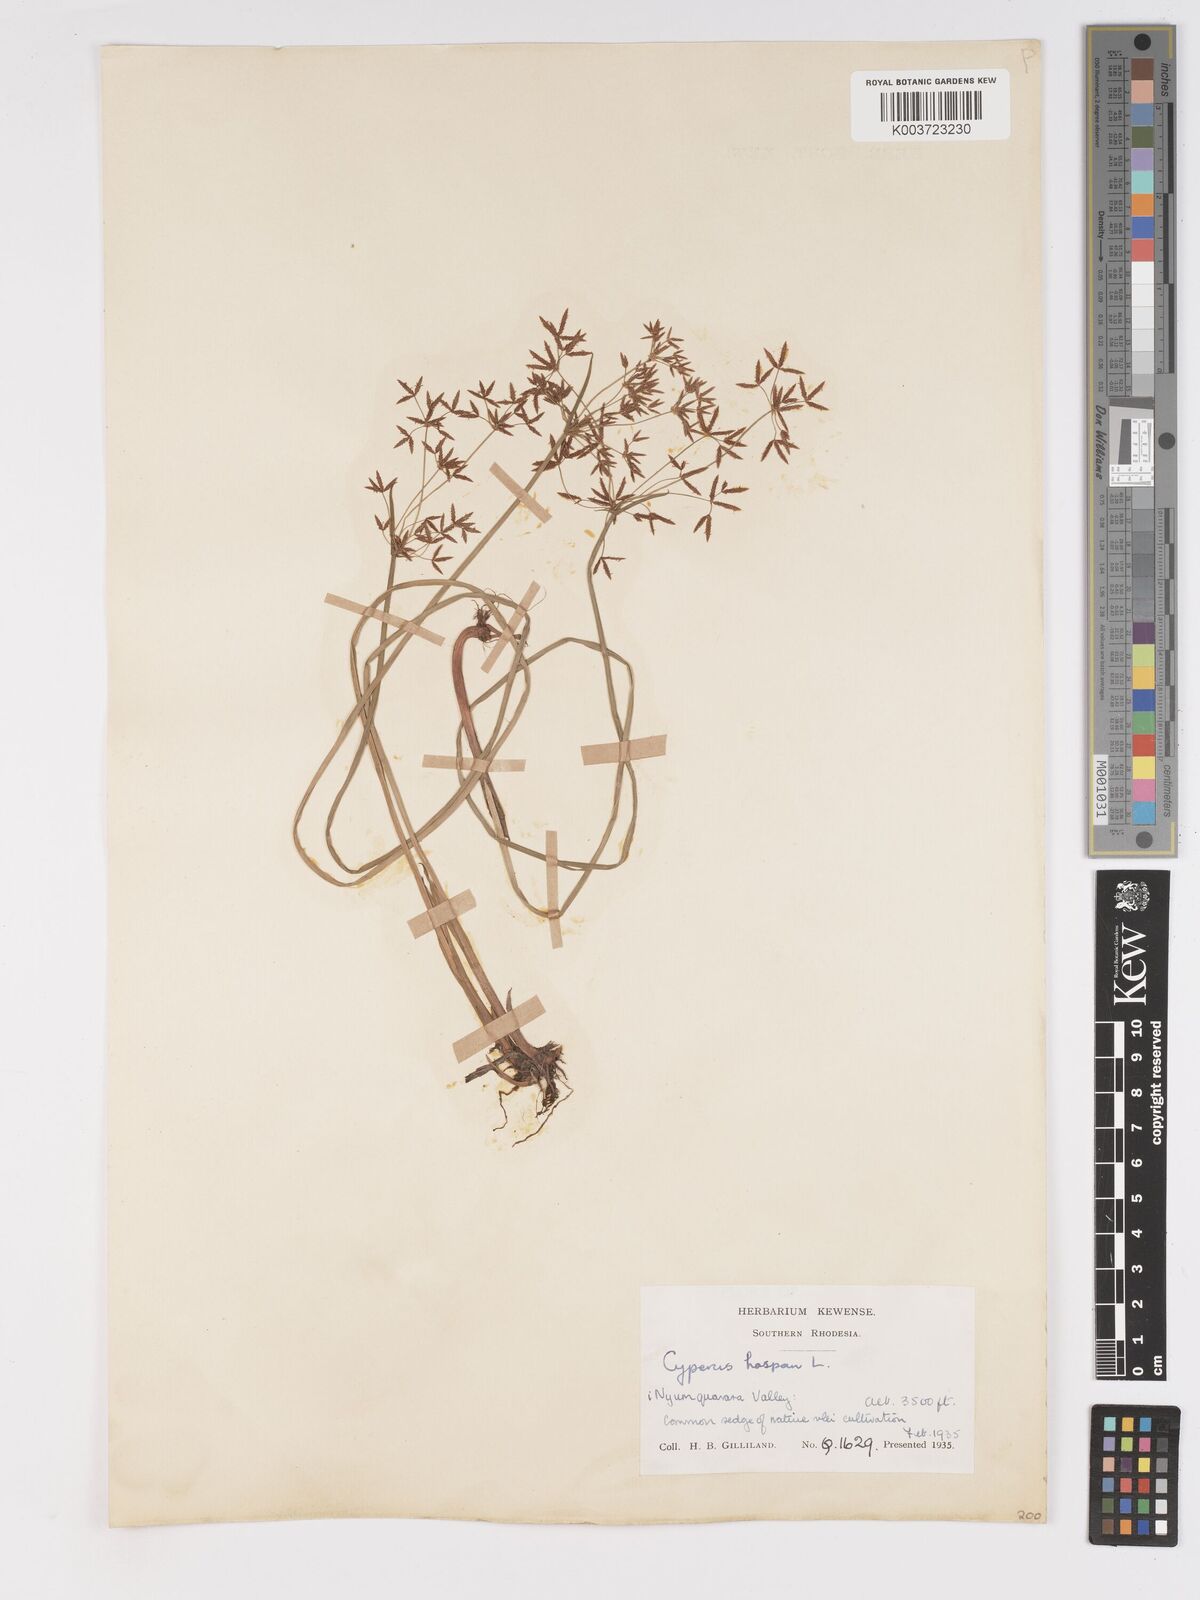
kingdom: Plantae
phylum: Tracheophyta
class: Liliopsida
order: Poales
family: Cyperaceae
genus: Cyperus
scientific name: Cyperus haspan
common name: Haspan flatsedge
